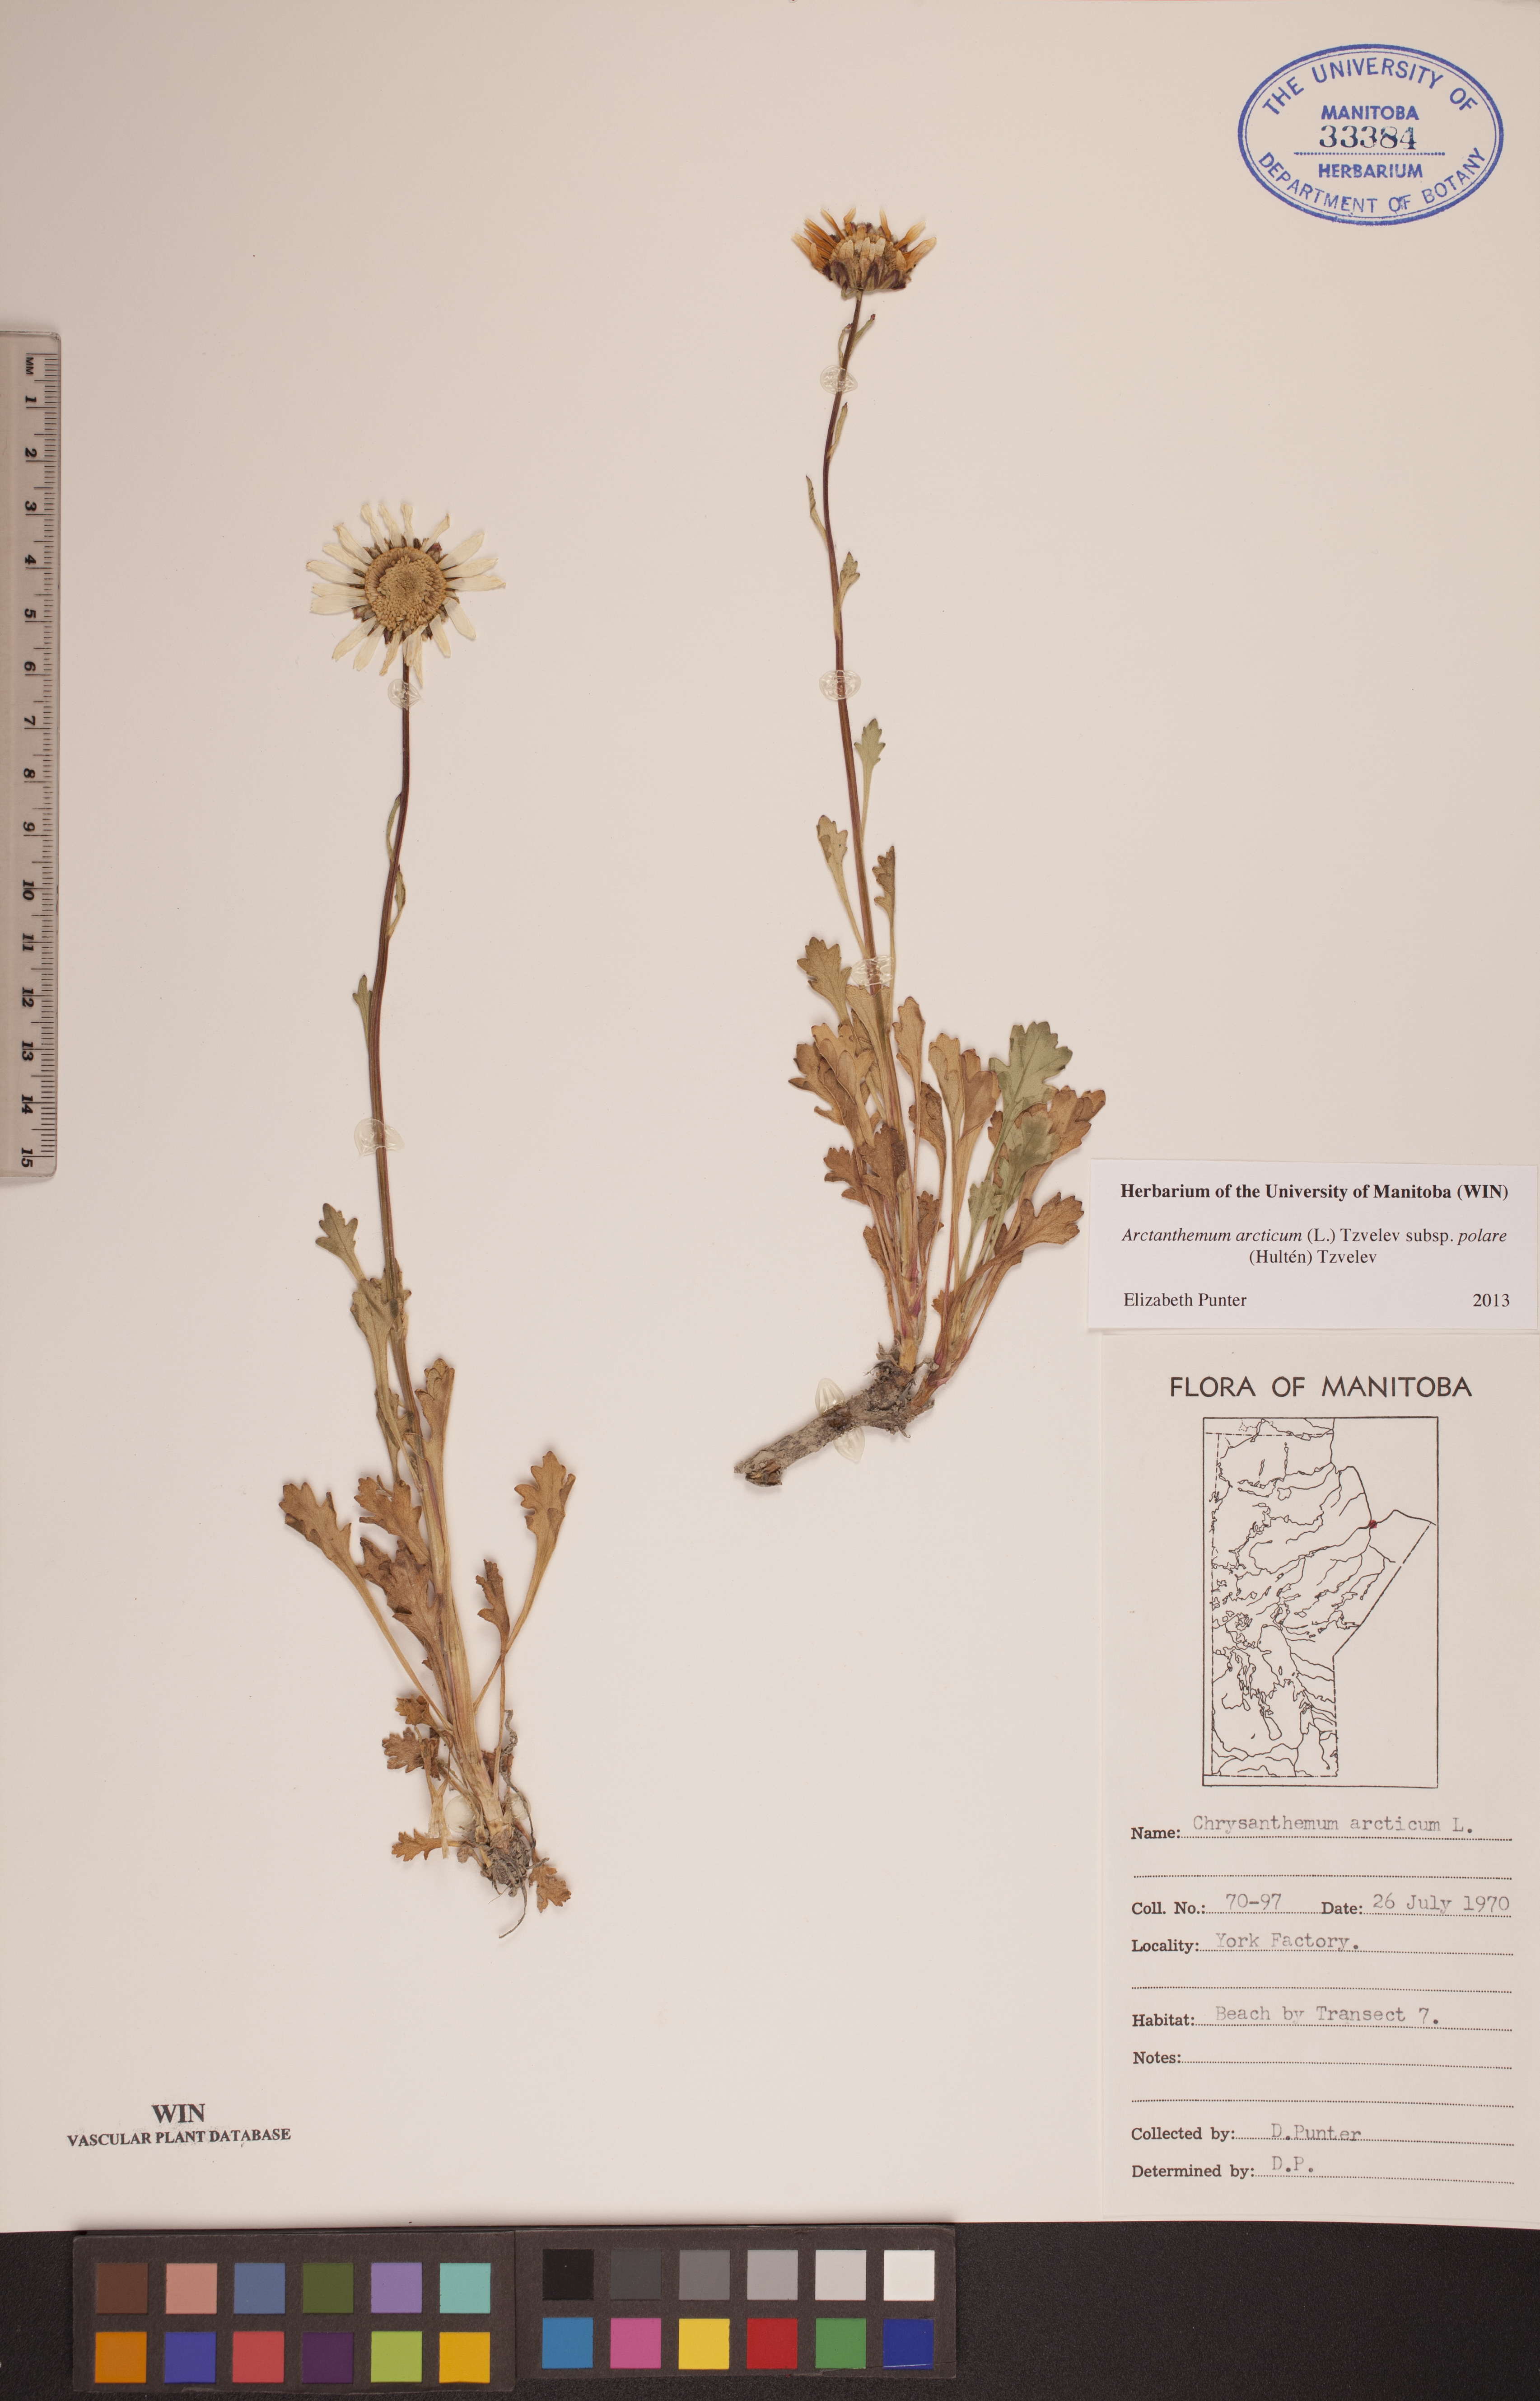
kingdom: Plantae
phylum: Tracheophyta
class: Magnoliopsida
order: Asterales
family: Asteraceae
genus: Arctanthemum
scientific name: Arctanthemum arcticum
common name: Arctic daisy
